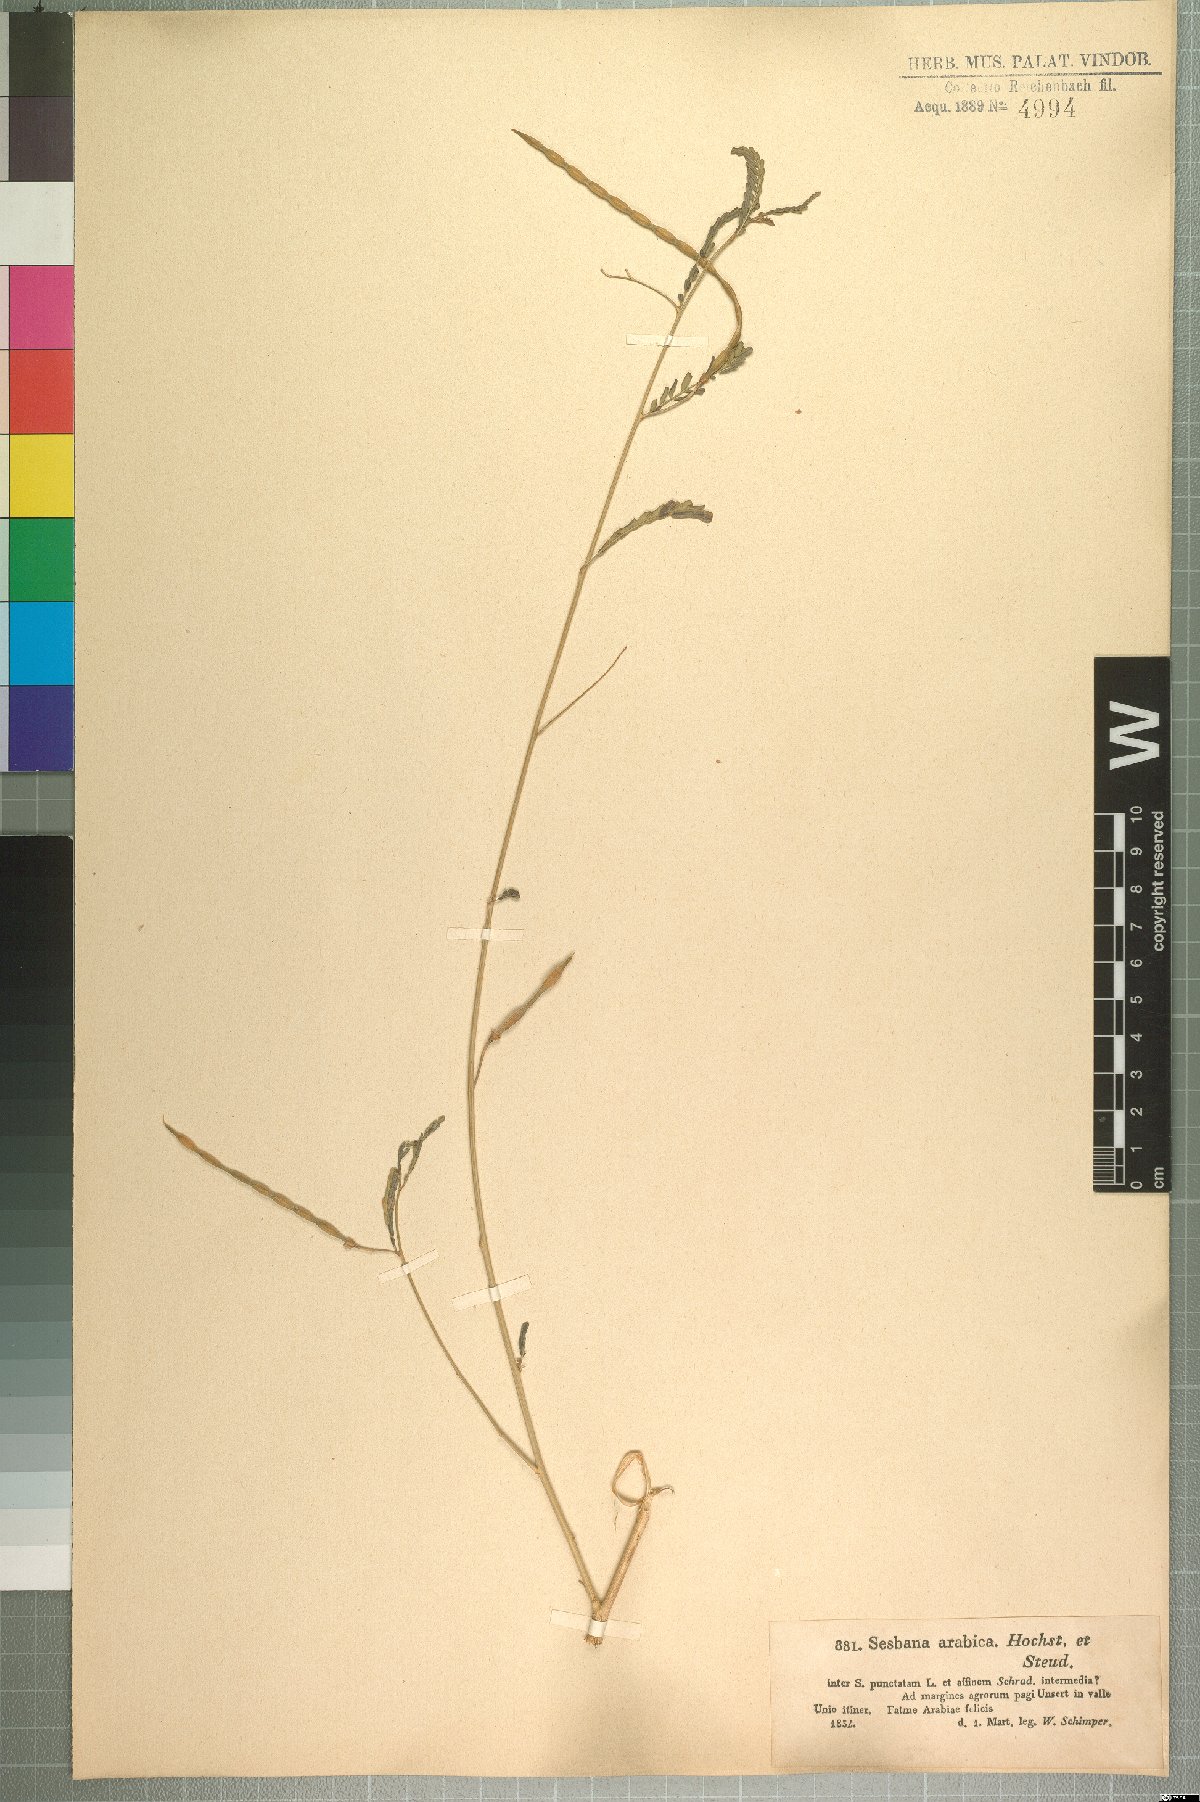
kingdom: Plantae
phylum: Tracheophyta
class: Magnoliopsida
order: Fabales
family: Fabaceae
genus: Sesbania
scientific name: Sesbania leptocarpa
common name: Riverhemp
